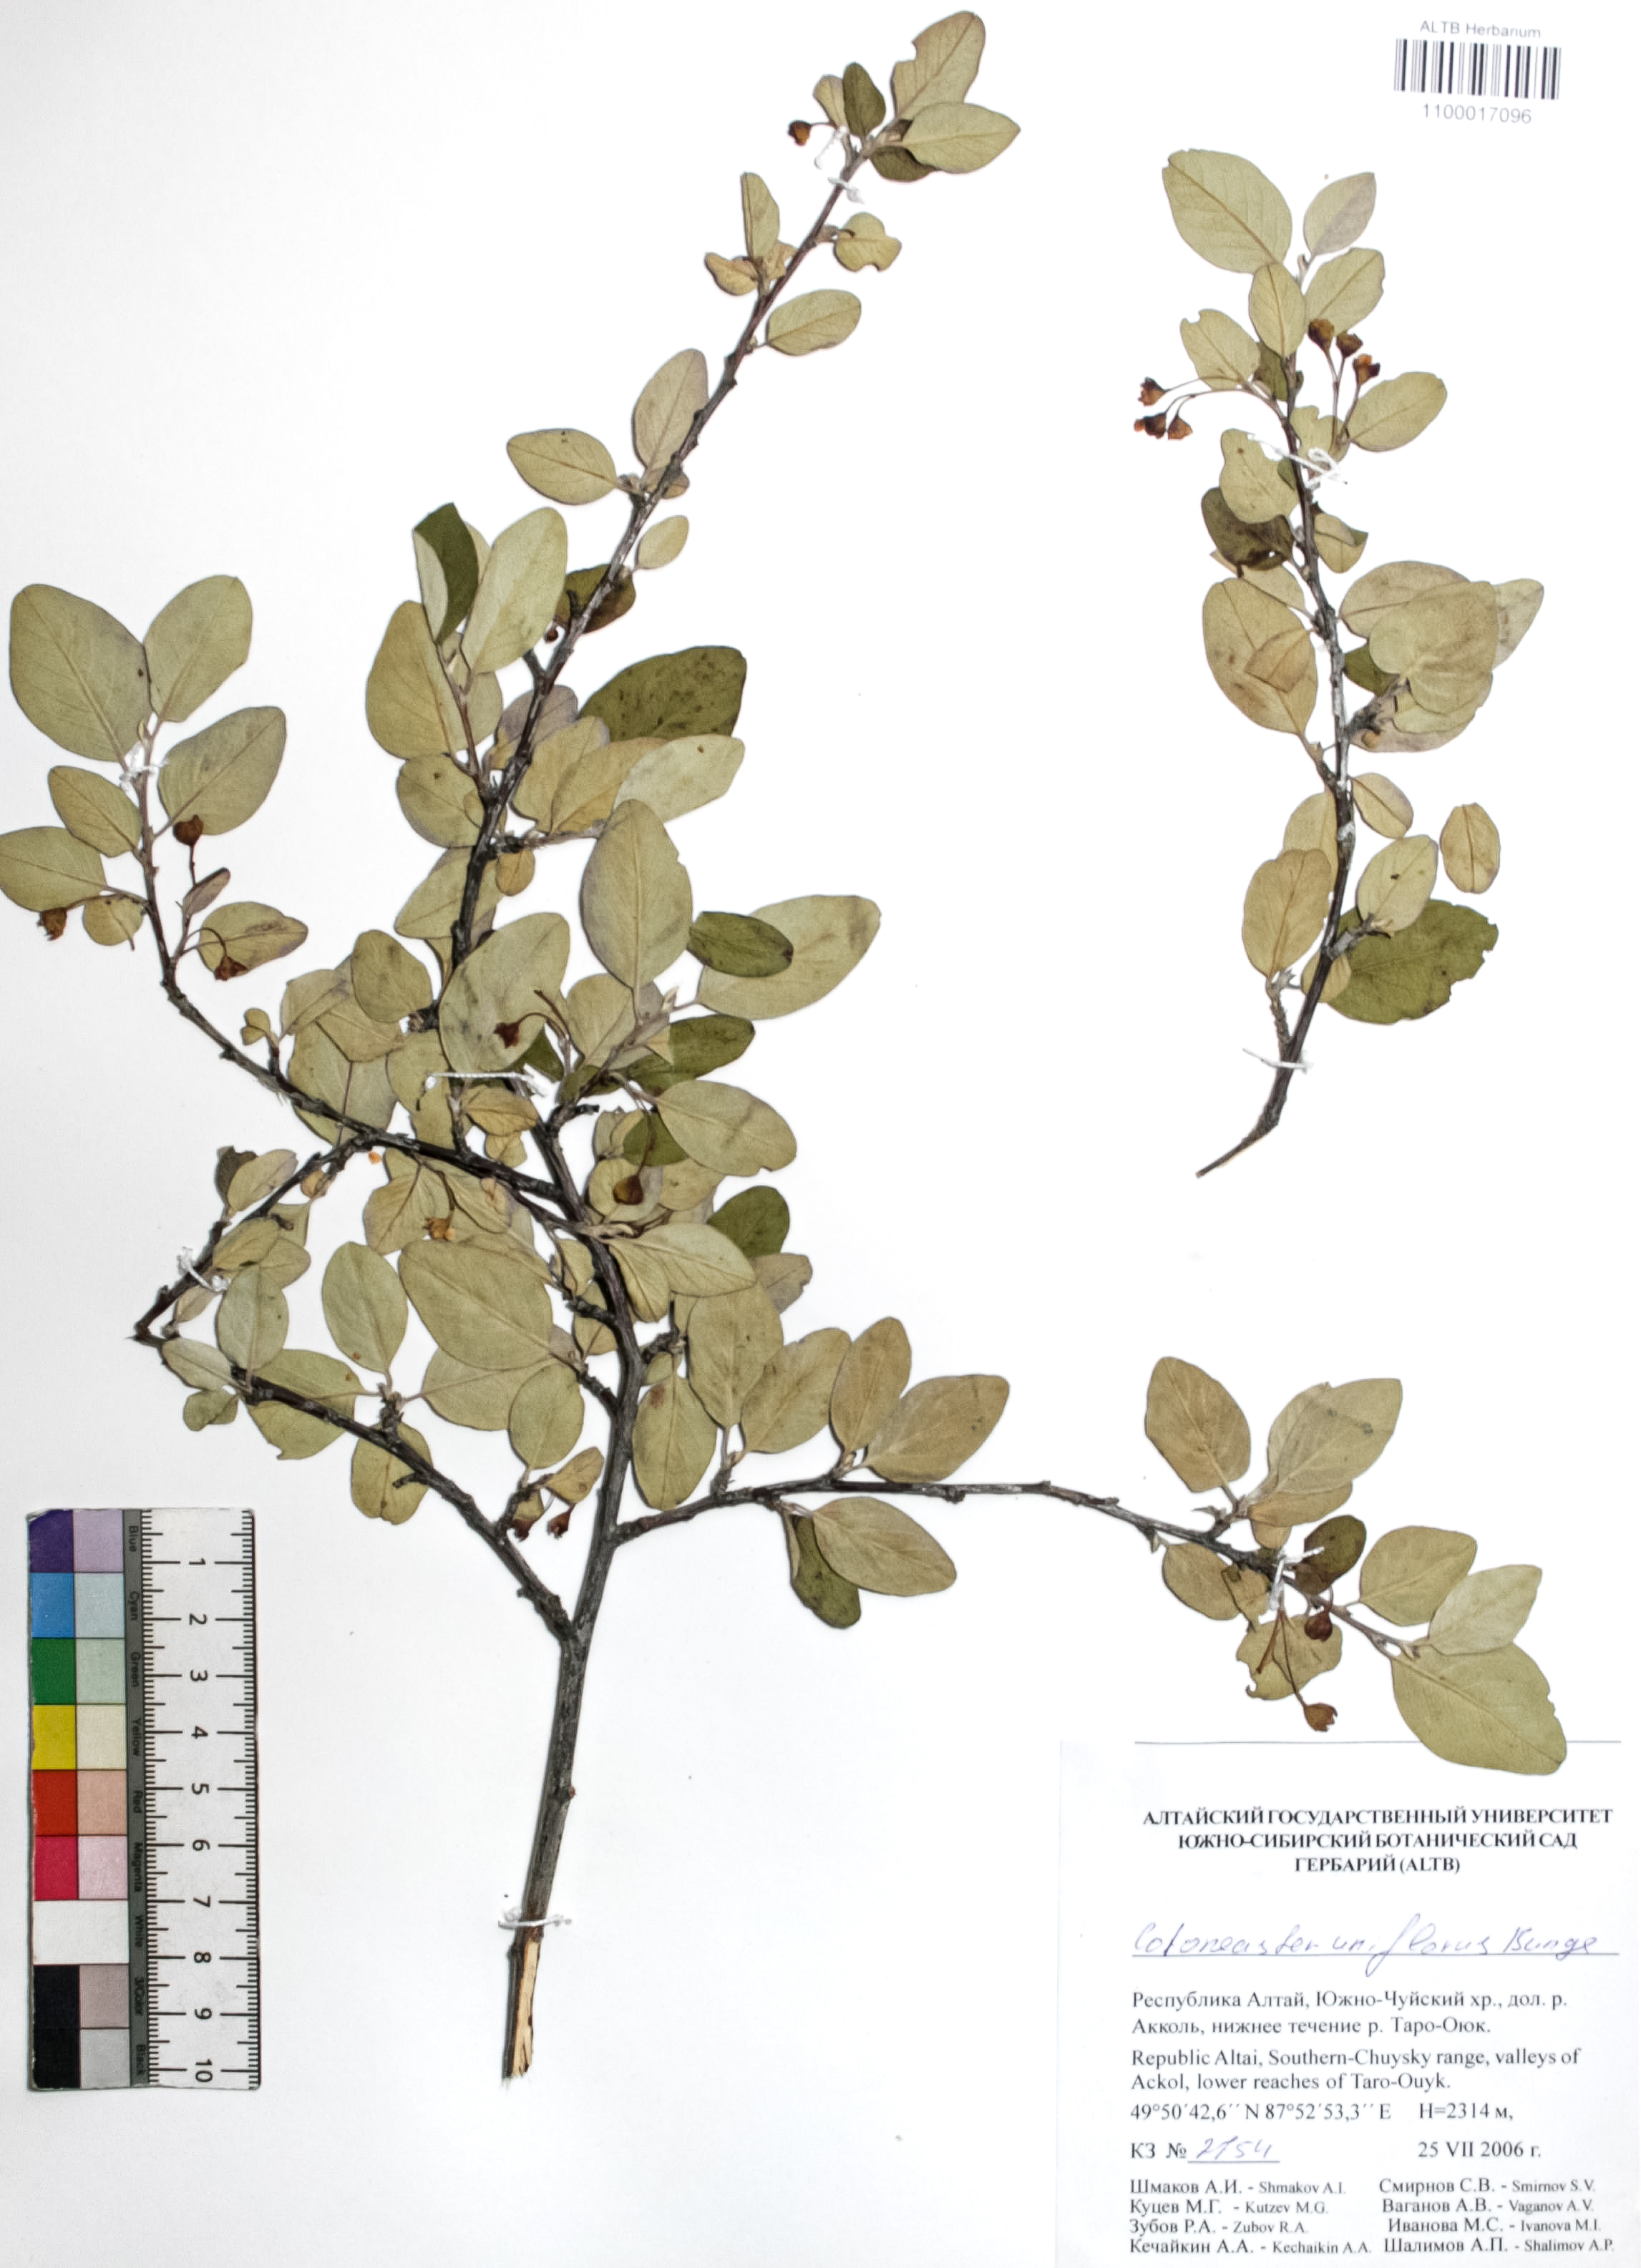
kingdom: Plantae
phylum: Tracheophyta
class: Magnoliopsida
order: Rosales
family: Rosaceae
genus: Cotoneaster
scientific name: Cotoneaster uniflorus
